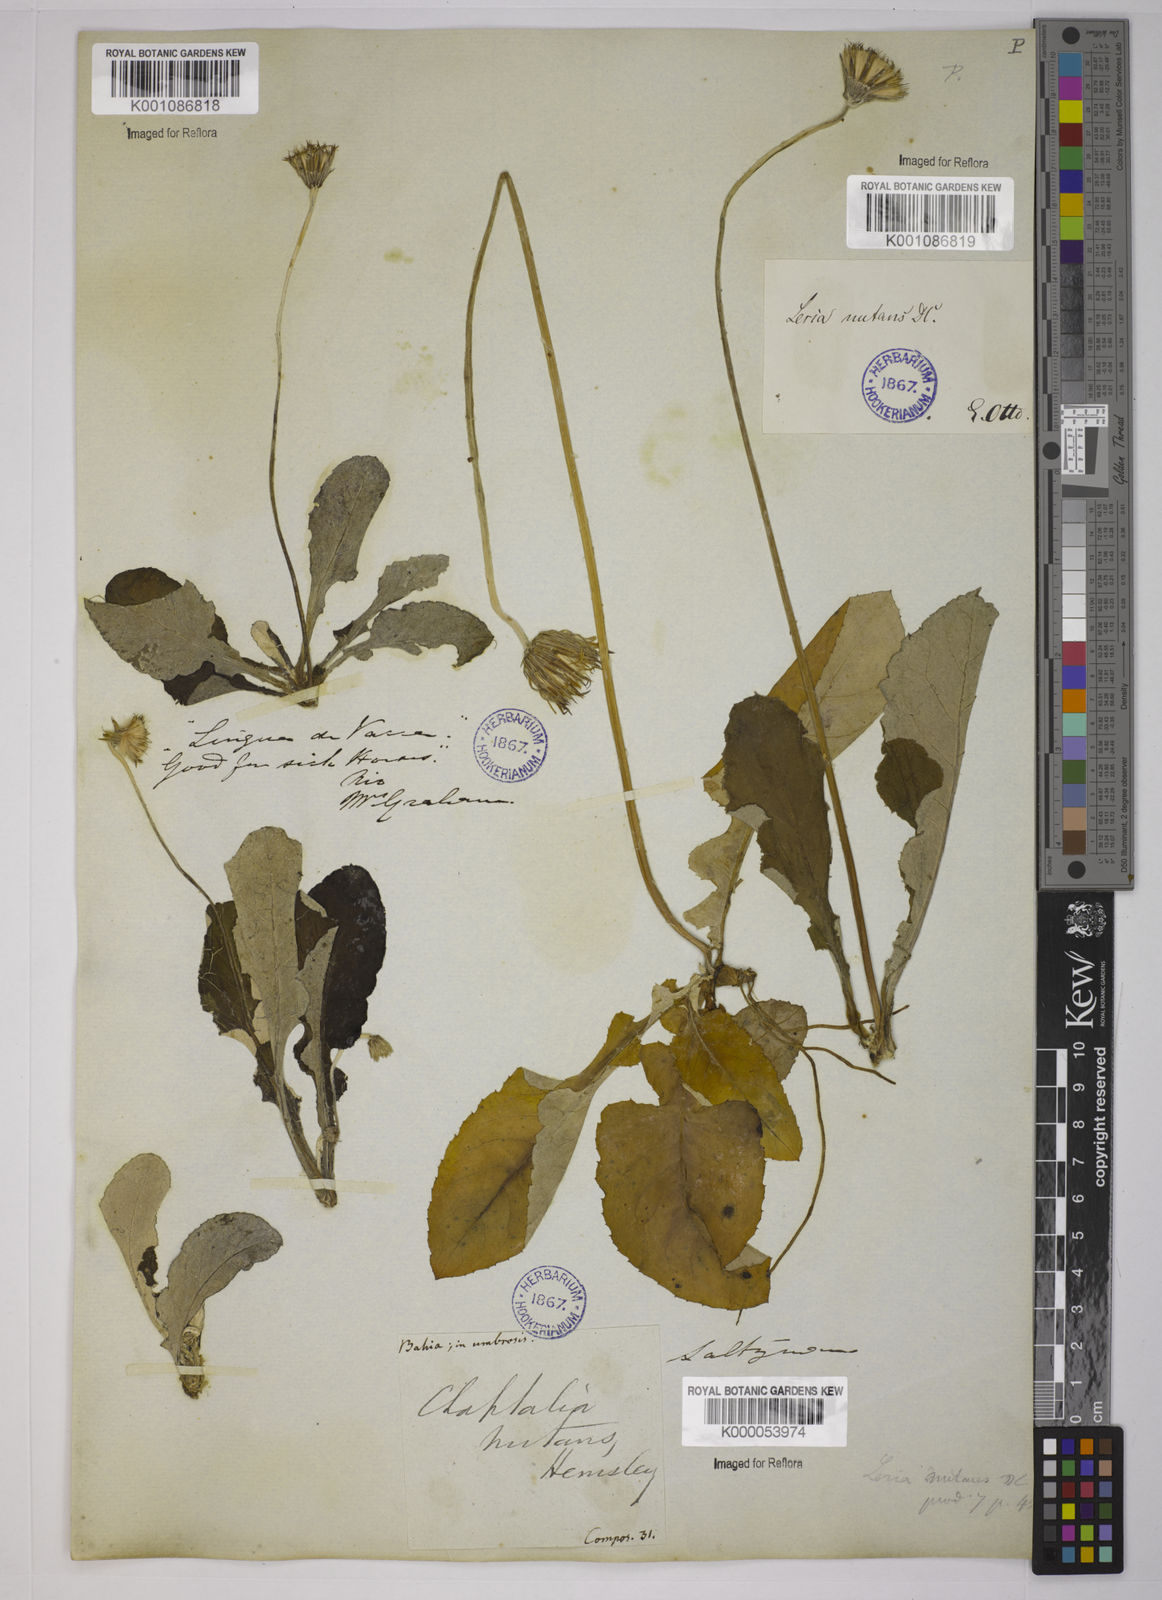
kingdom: Plantae
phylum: Tracheophyta
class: Magnoliopsida
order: Asterales
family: Asteraceae
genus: Chaptalia
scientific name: Chaptalia nutans
